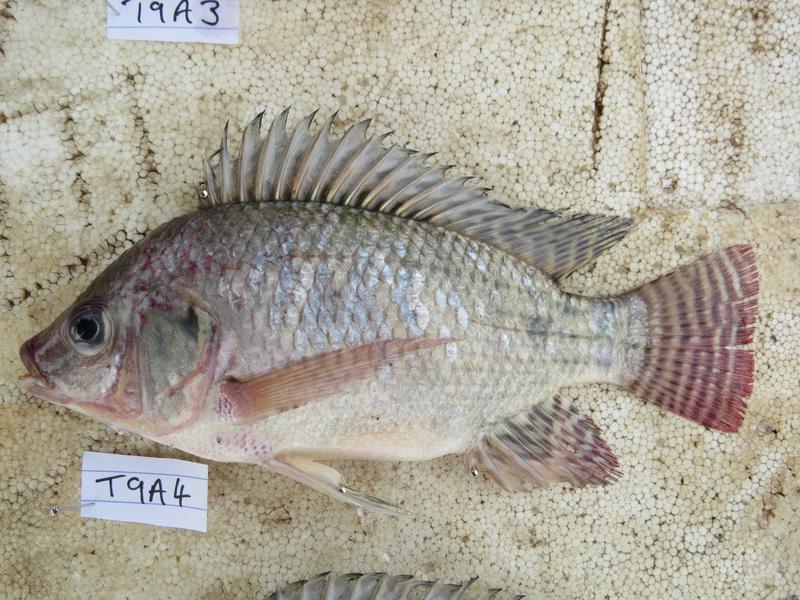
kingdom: Animalia
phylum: Chordata
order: Perciformes
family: Cichlidae
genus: Oreochromis
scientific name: Oreochromis niloticus
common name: Nile tilapia
